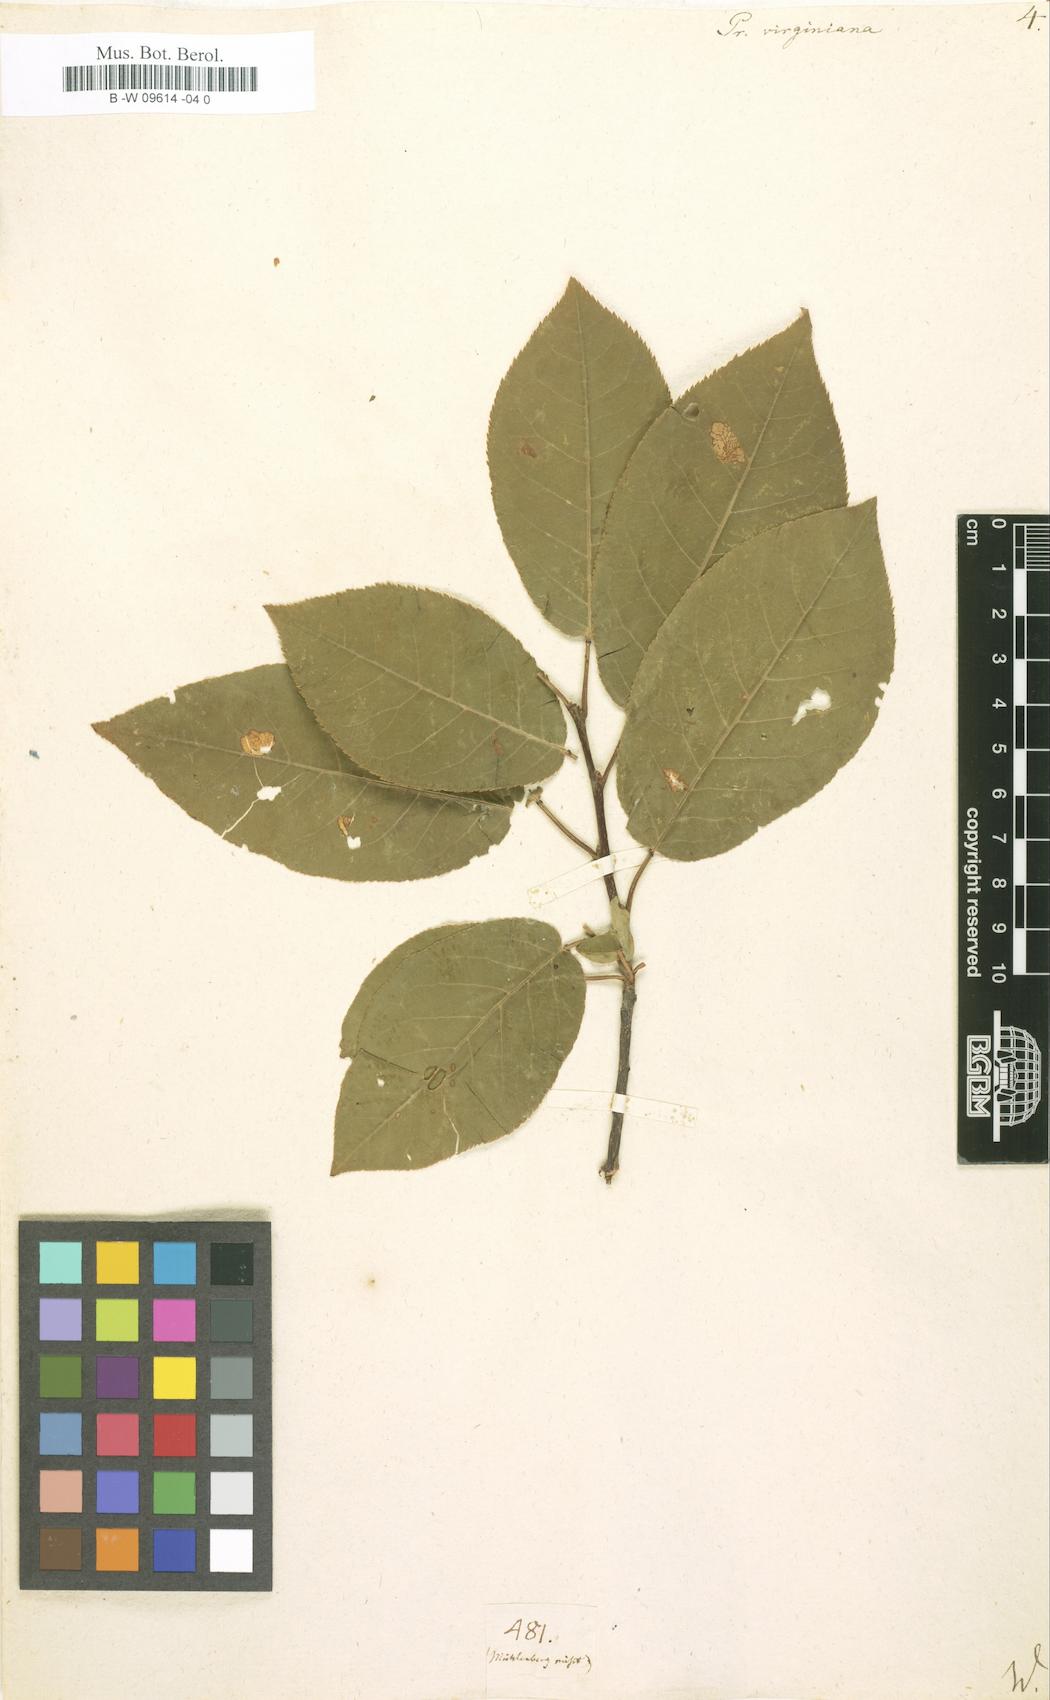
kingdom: Plantae
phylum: Tracheophyta
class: Magnoliopsida
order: Rosales
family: Rosaceae
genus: Prunus
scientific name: Prunus virginiana
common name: Chokecherry
